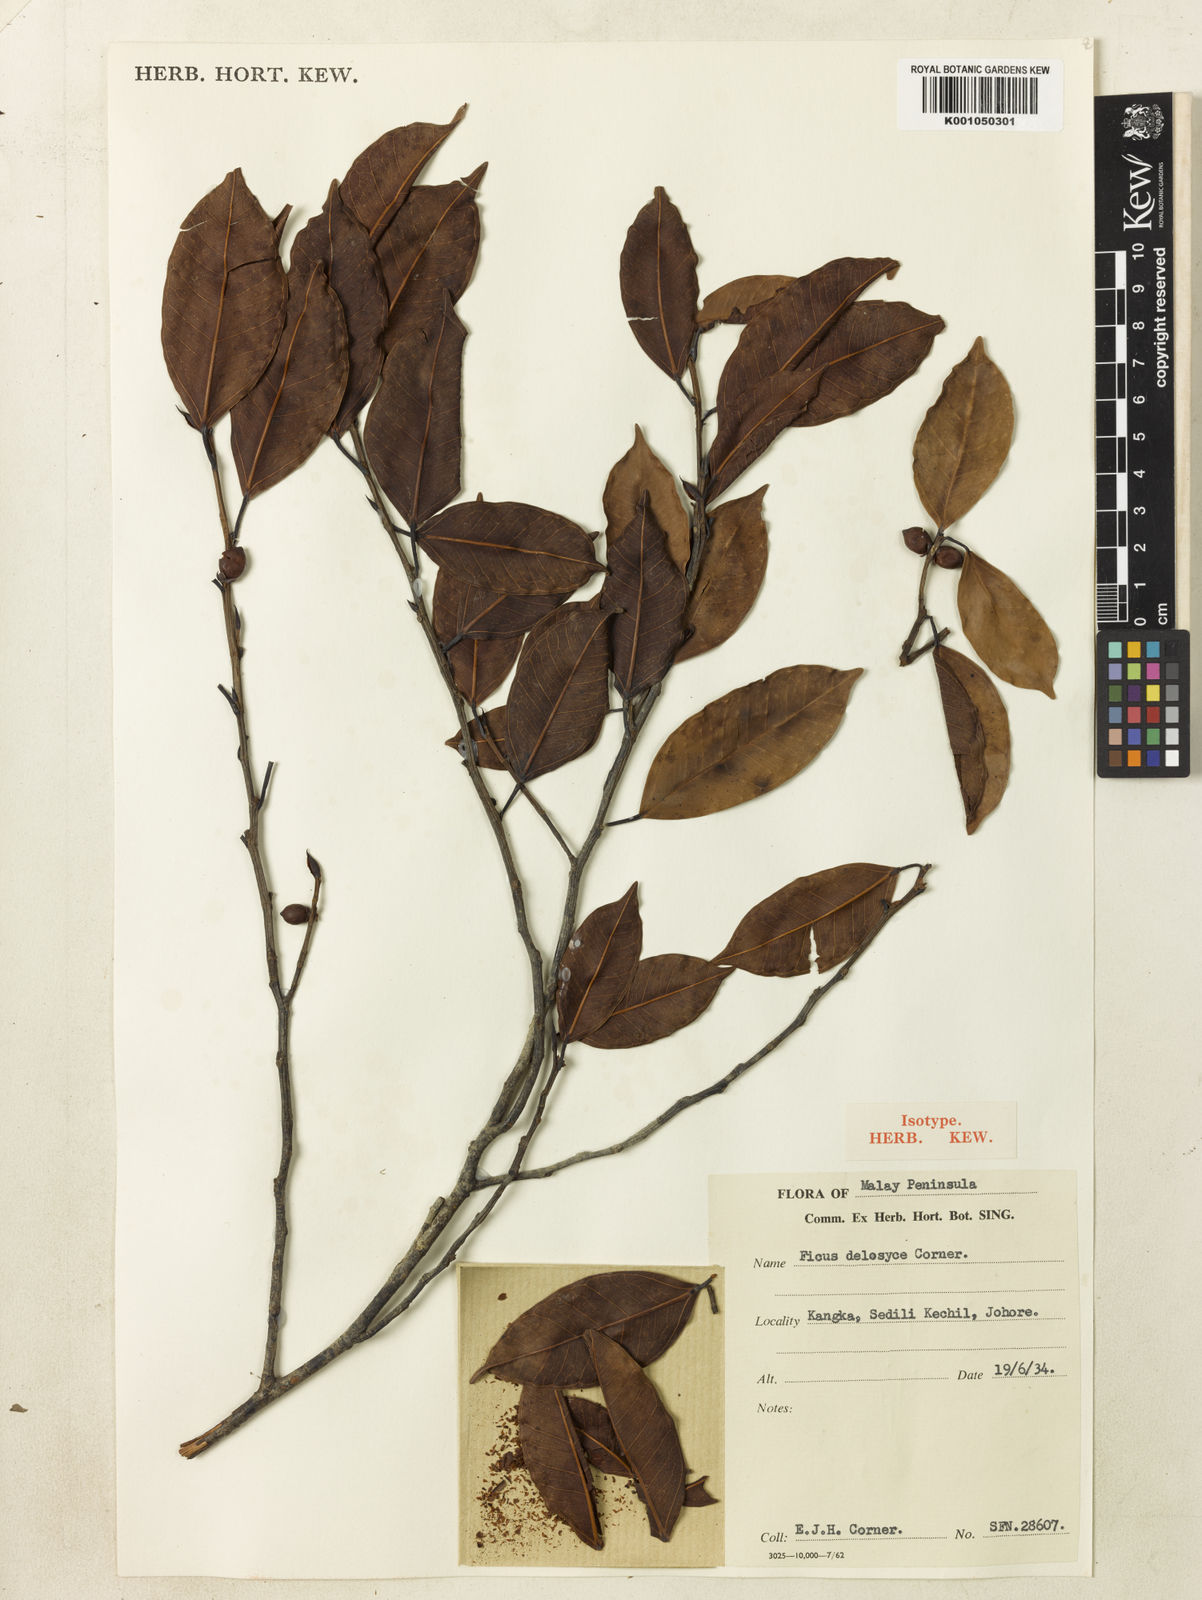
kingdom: Plantae
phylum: Tracheophyta
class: Magnoliopsida
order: Rosales
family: Moraceae
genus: Ficus
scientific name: Ficus delosyce
